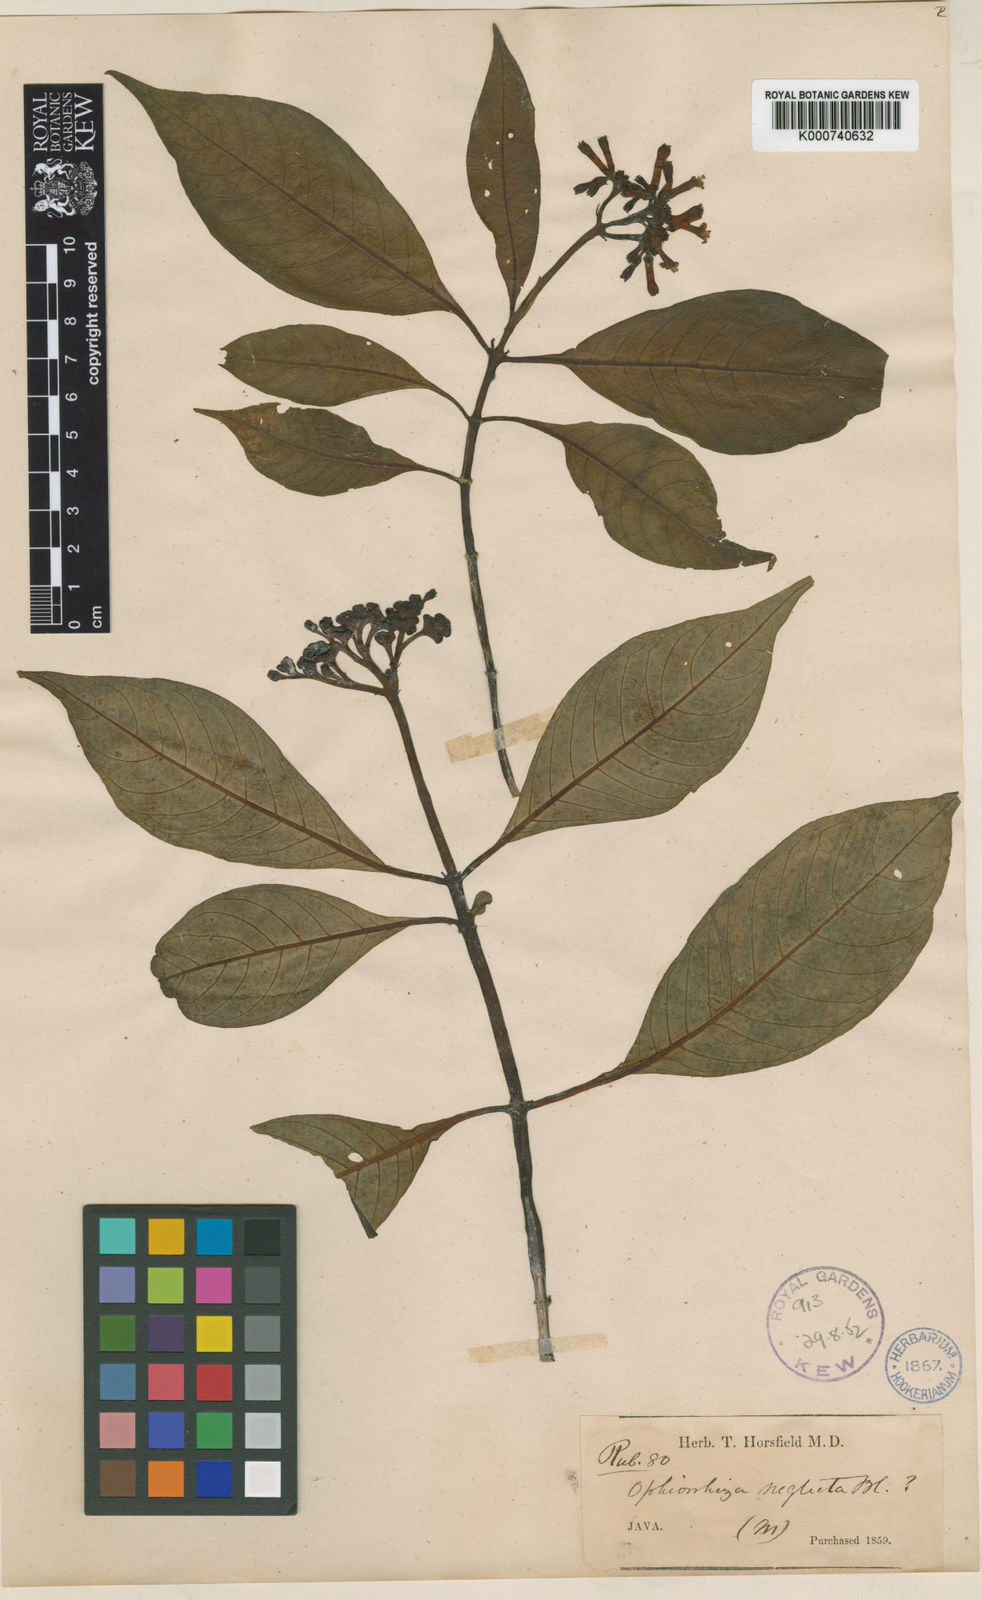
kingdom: Plantae
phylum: Tracheophyta
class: Magnoliopsida
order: Gentianales
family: Rubiaceae
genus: Ophiorrhiza
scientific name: Ophiorrhiza marginata
